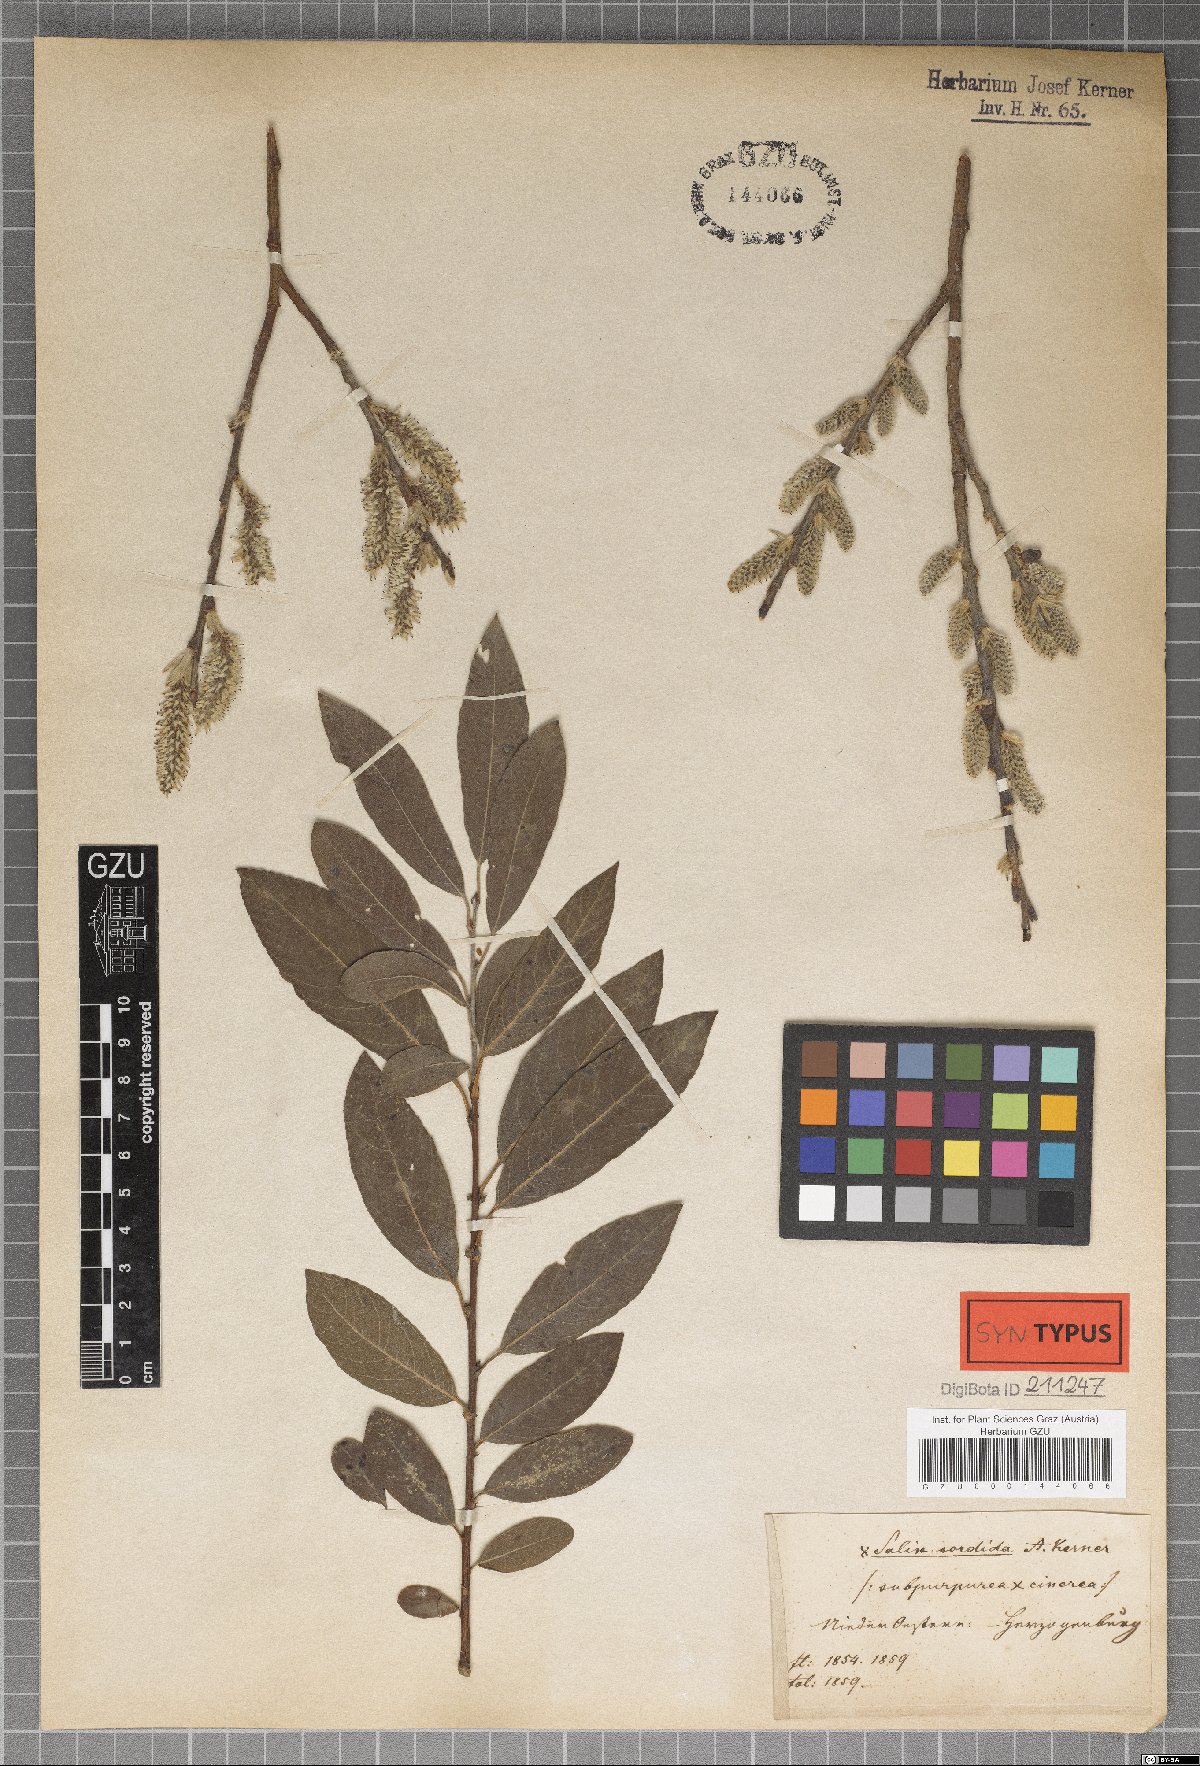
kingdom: Plantae
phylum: Tracheophyta
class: Magnoliopsida
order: Malpighiales
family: Salicaceae
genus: Salix
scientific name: Salix sordida
